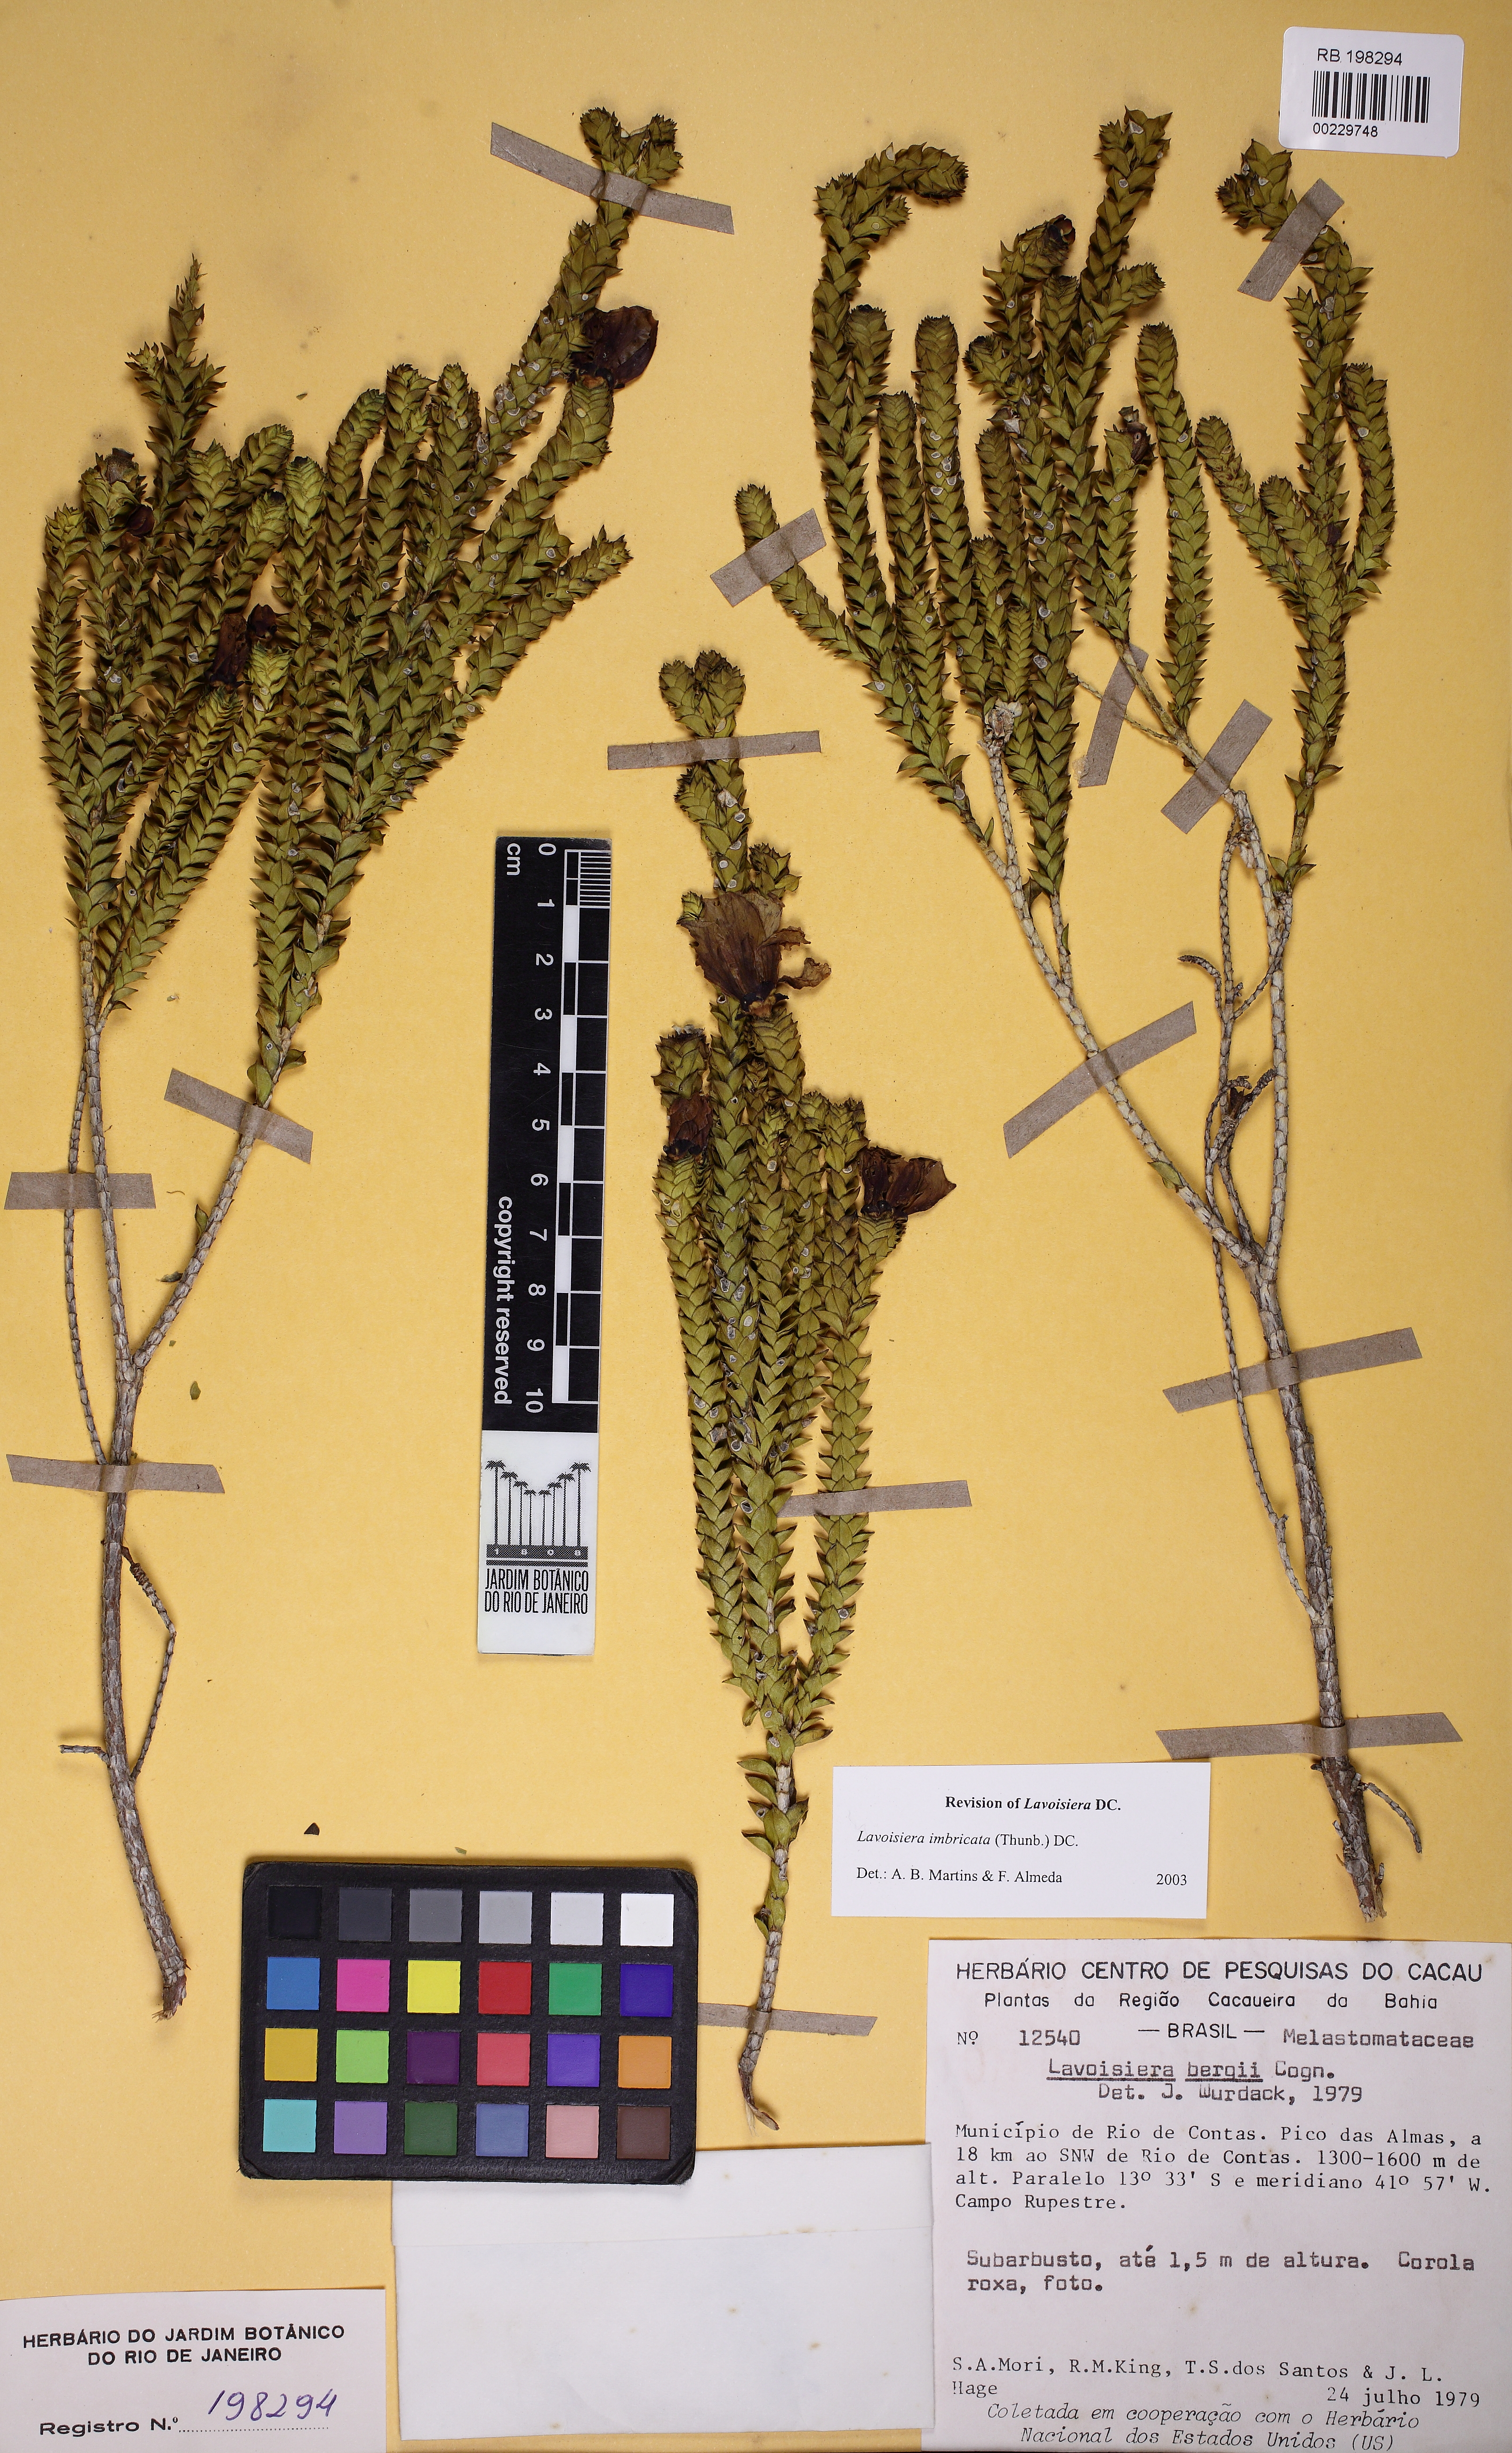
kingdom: Plantae
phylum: Tracheophyta
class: Magnoliopsida
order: Myrtales
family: Melastomataceae
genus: Microlicia
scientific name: Microlicia cataphracta
